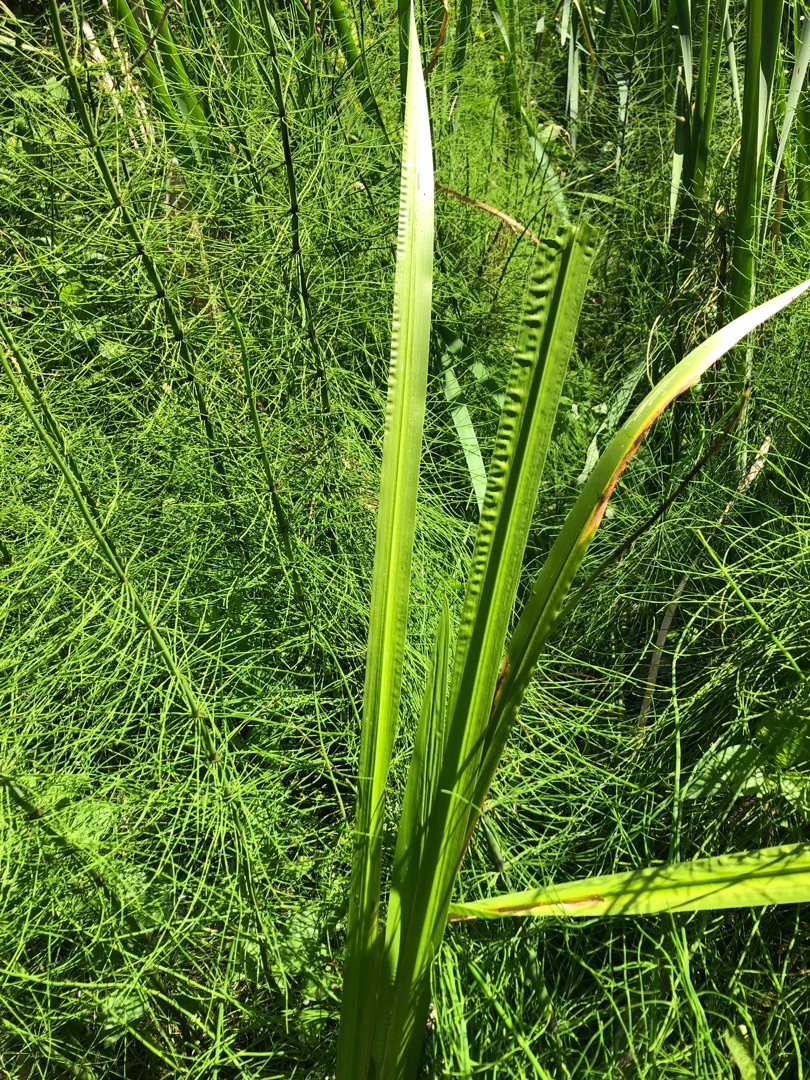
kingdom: Plantae
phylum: Tracheophyta
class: Liliopsida
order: Acorales
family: Acoraceae
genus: Acorus
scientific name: Acorus calamus
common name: Kalmus
